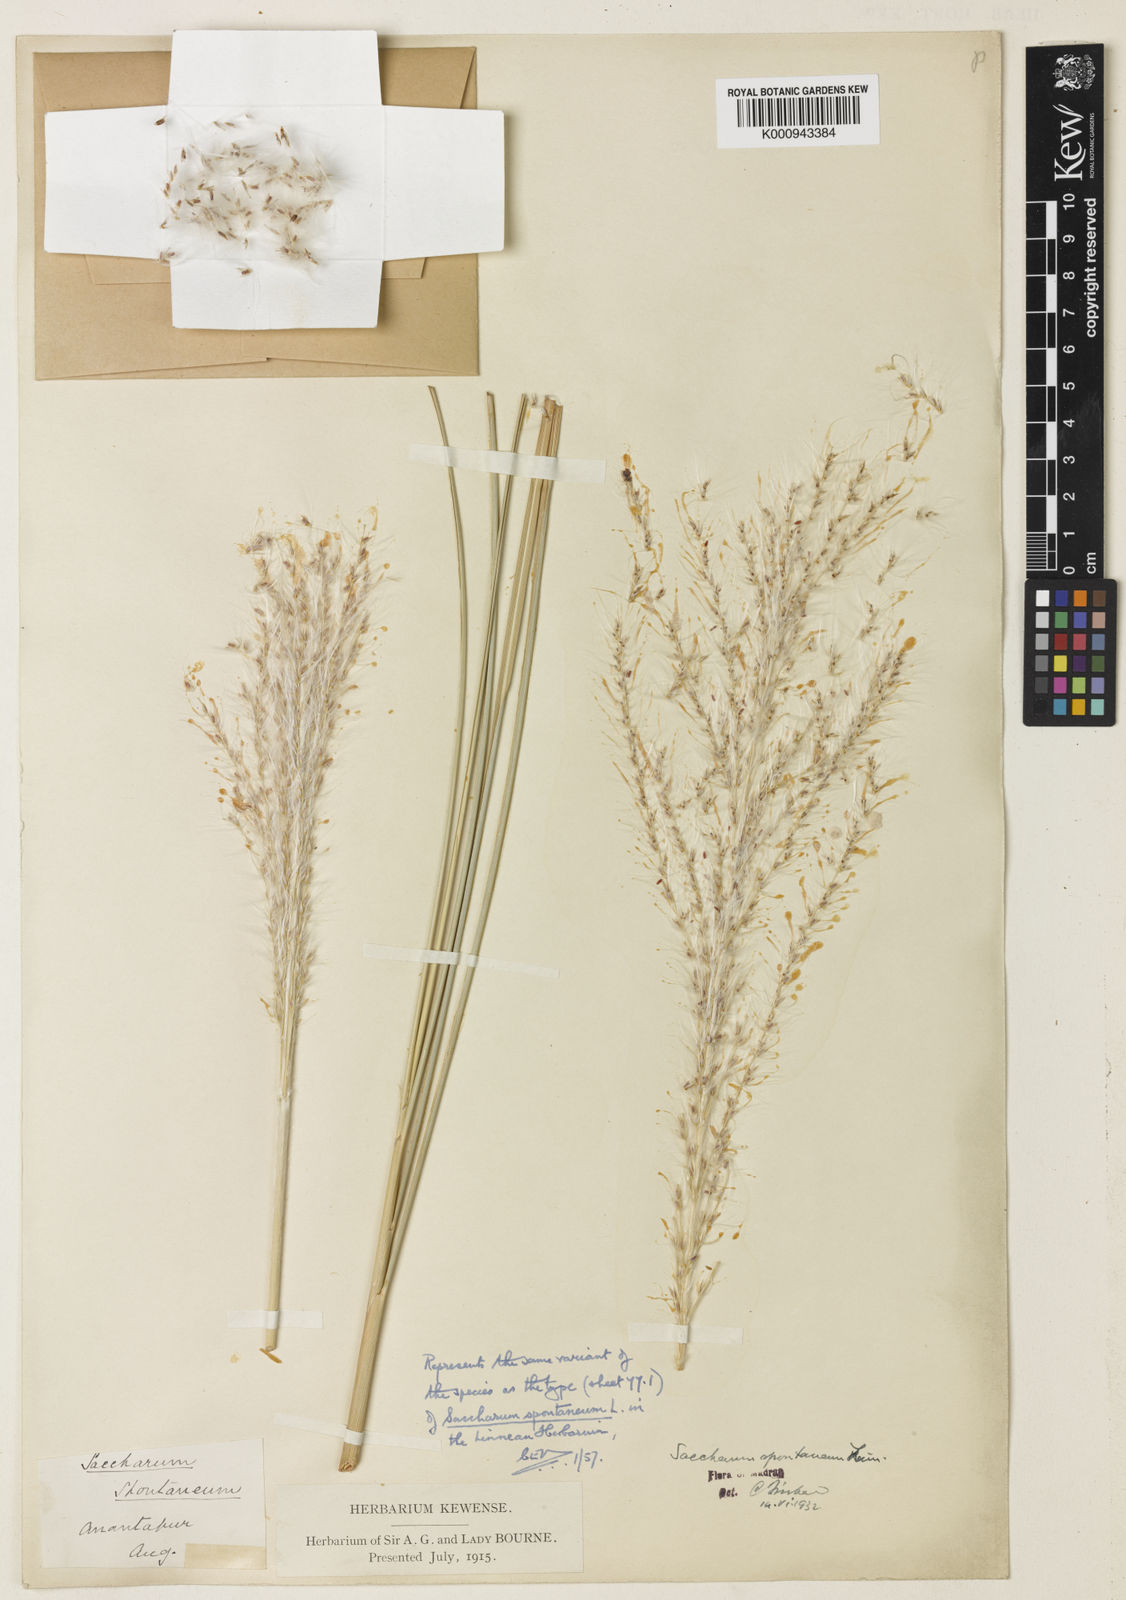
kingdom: Plantae
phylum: Tracheophyta
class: Liliopsida
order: Poales
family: Poaceae
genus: Saccharum
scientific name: Saccharum spontaneum
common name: Wild sugarcane
